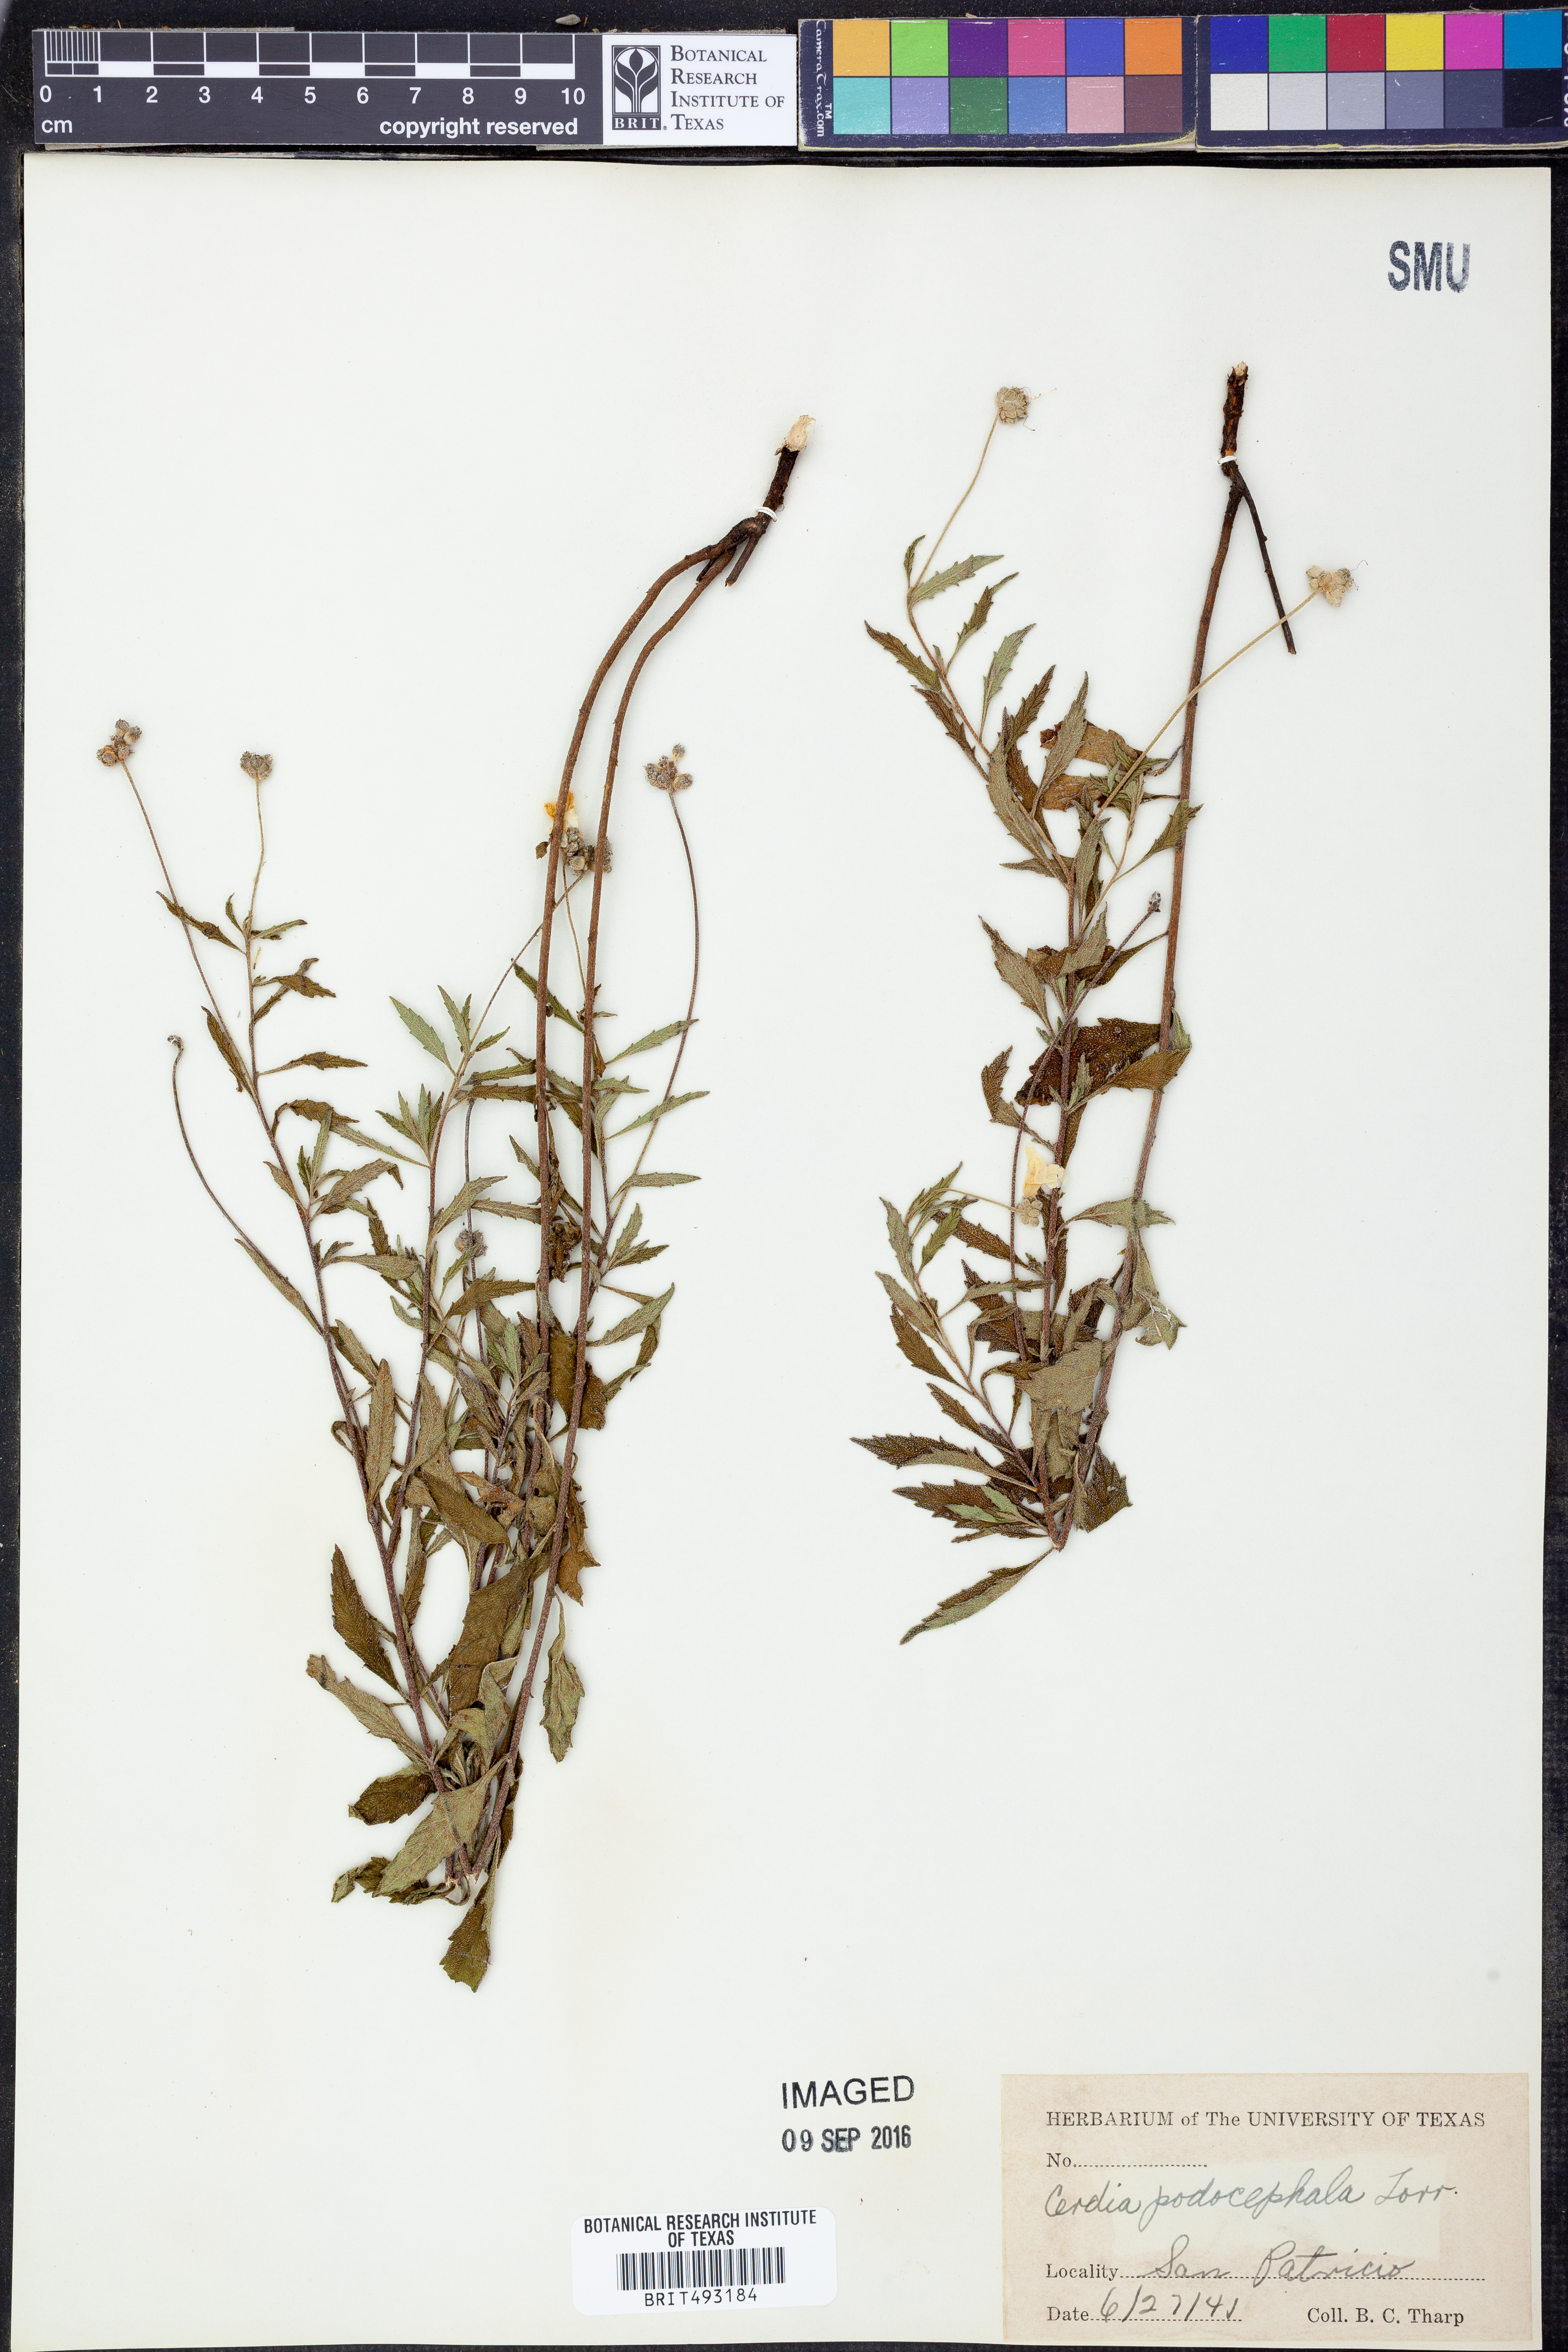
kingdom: Plantae
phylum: Tracheophyta
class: Magnoliopsida
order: Boraginales
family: Cordiaceae
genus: Varronia
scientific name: Varronia podocephala
